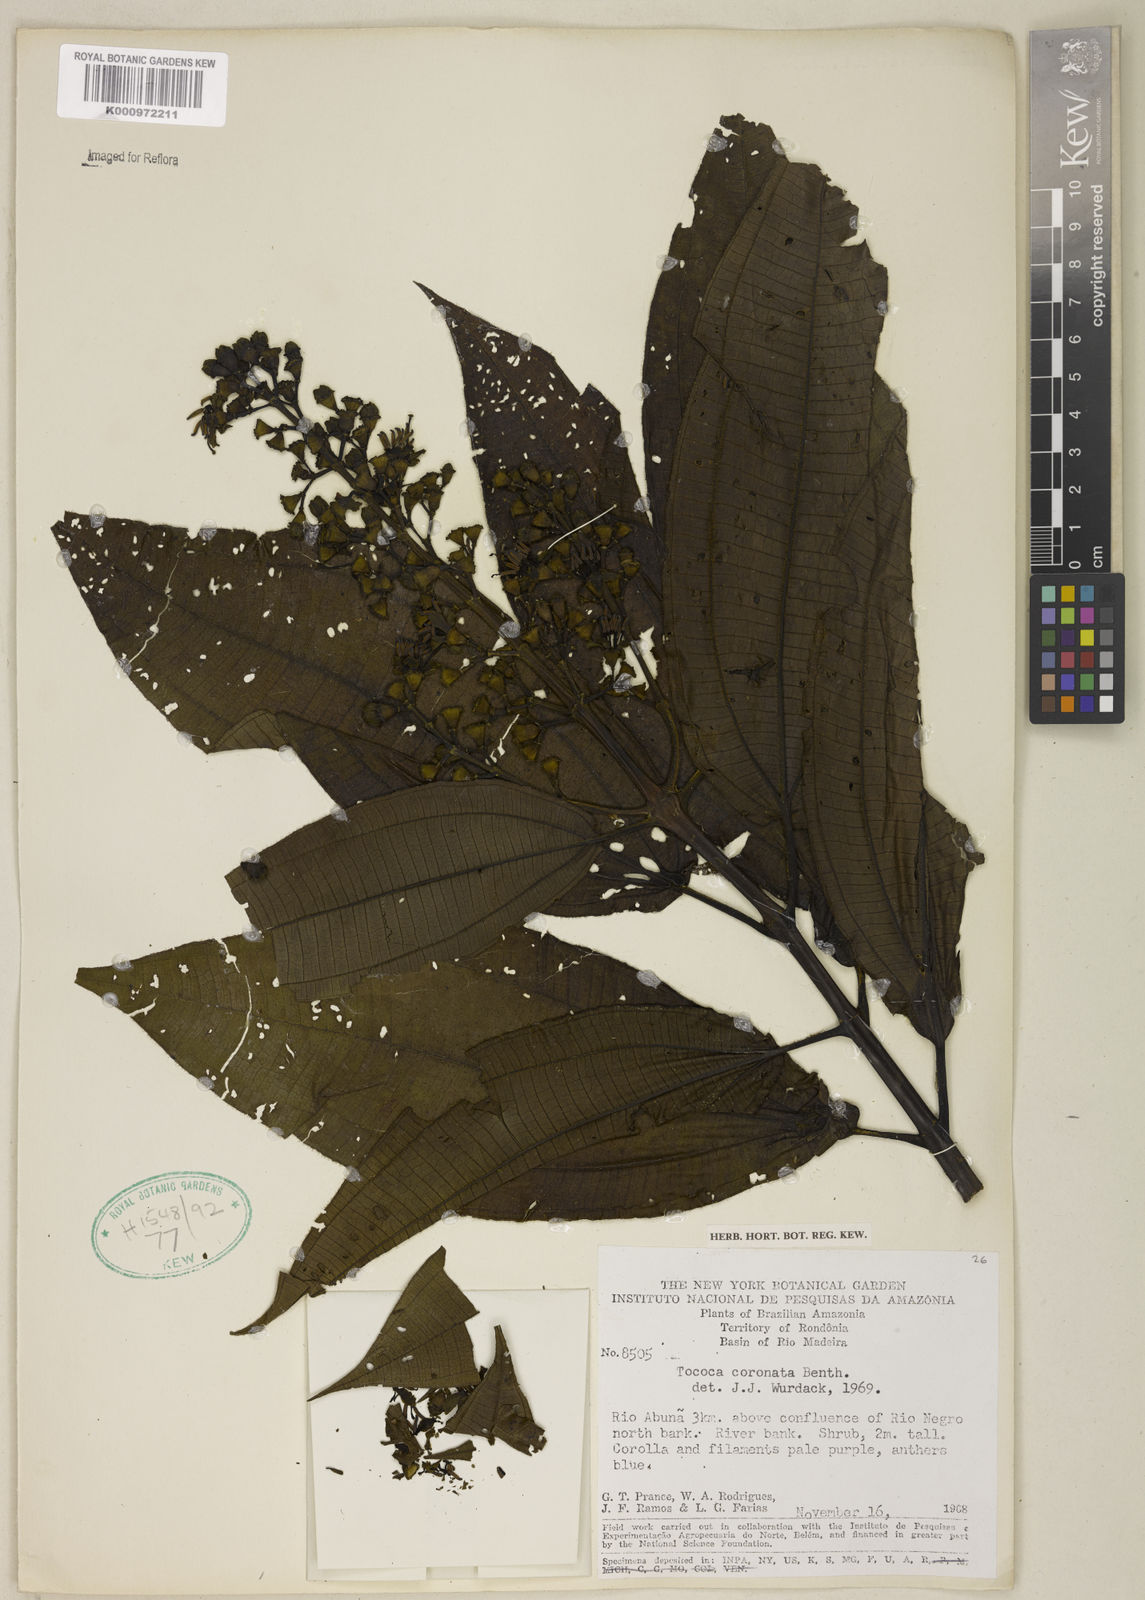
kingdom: Plantae
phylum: Tracheophyta
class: Magnoliopsida
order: Myrtales
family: Melastomataceae
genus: Miconia
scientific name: Miconia tococoronata
